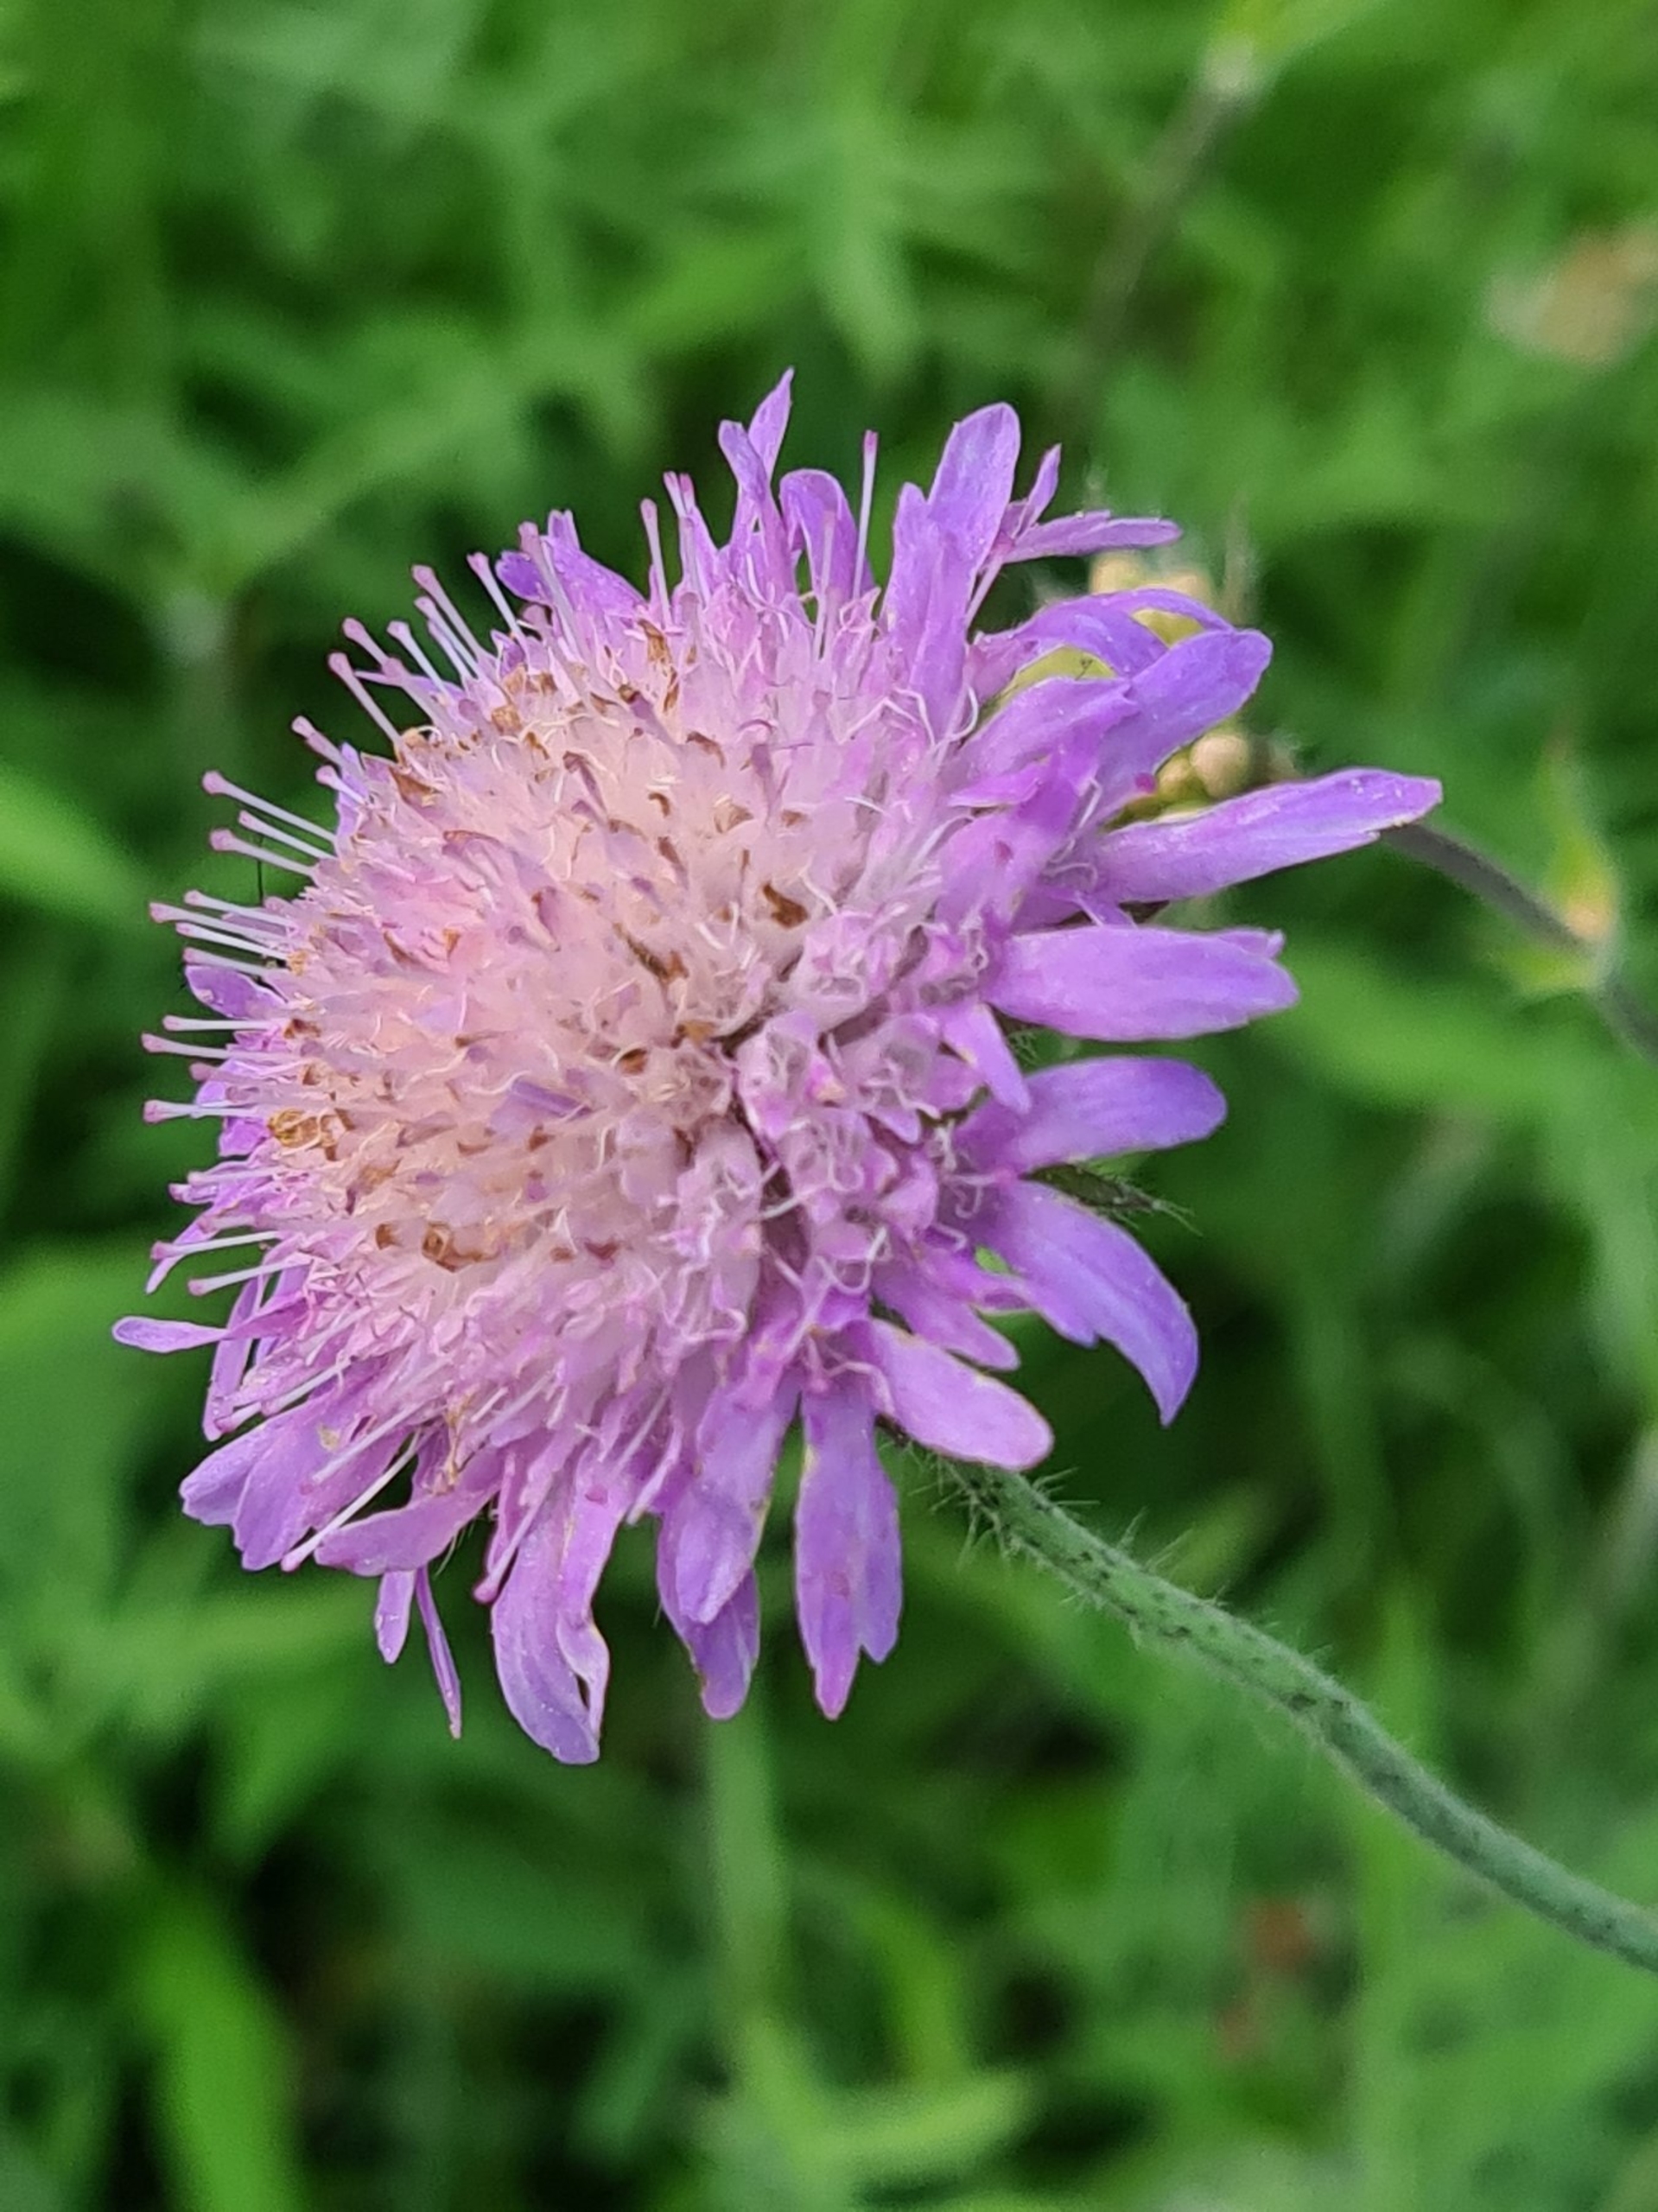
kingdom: Plantae
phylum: Tracheophyta
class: Magnoliopsida
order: Dipsacales
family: Caprifoliaceae
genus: Knautia
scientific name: Knautia arvensis
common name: Blåhat
